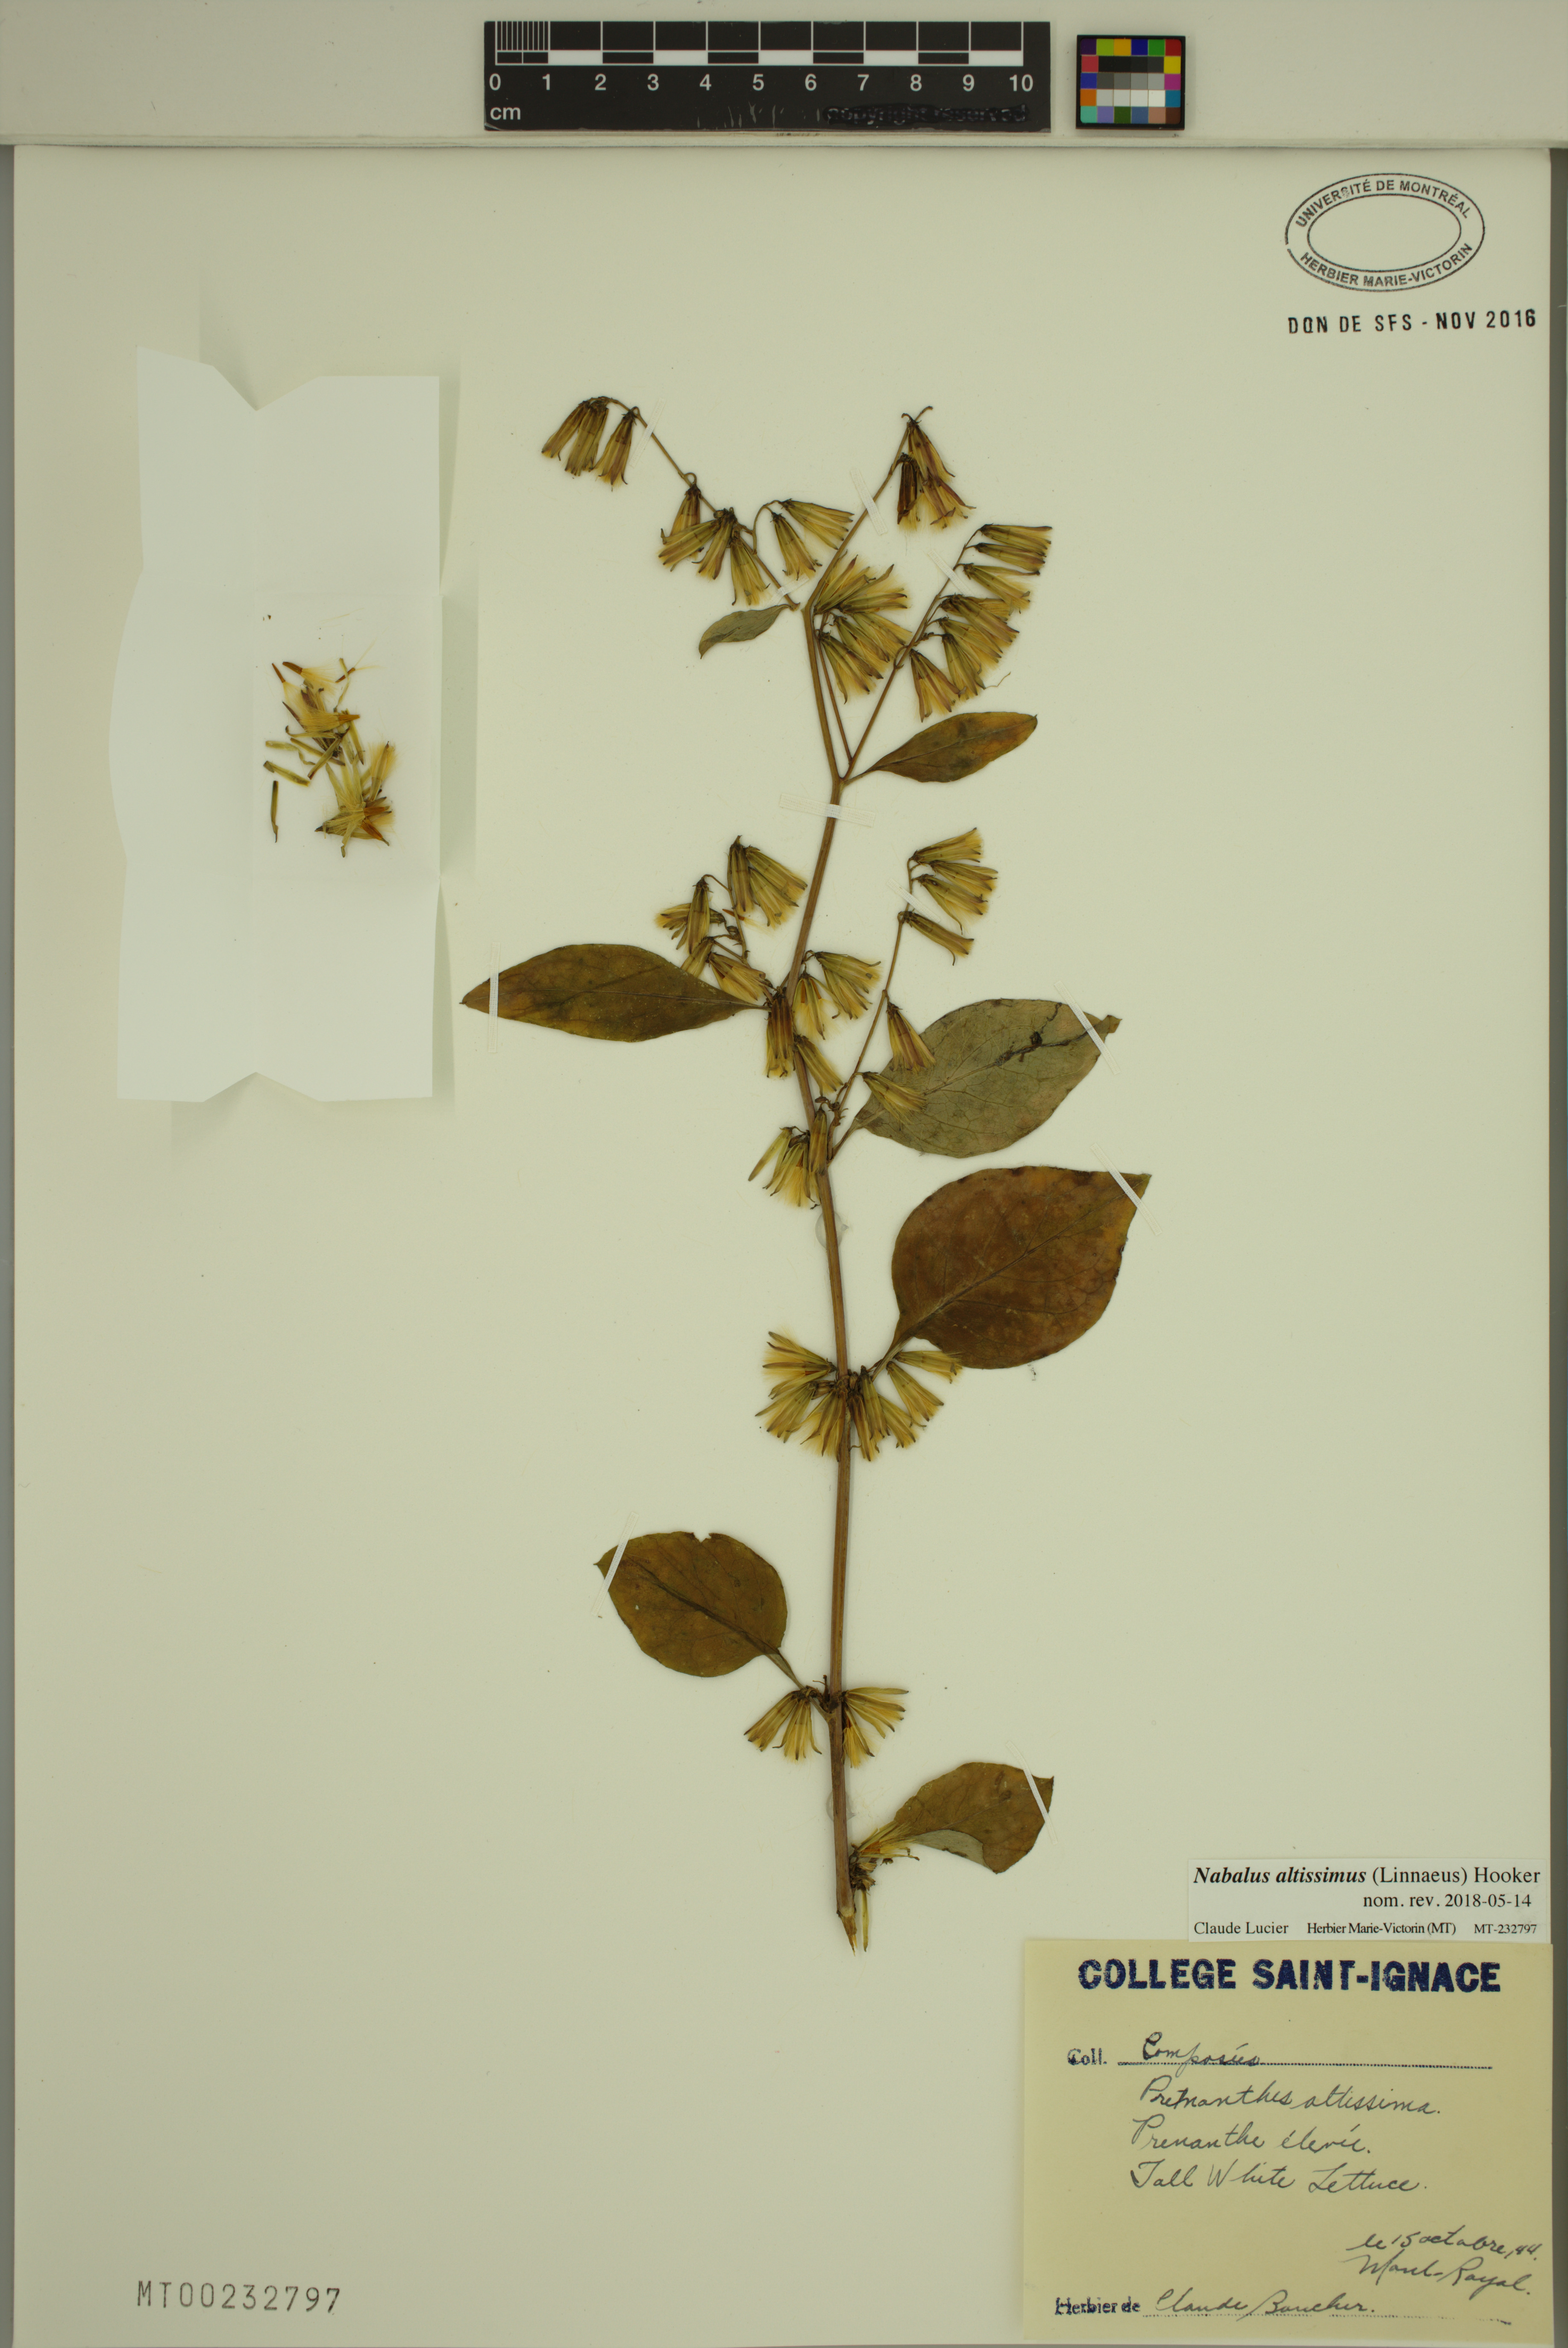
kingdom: Plantae
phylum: Tracheophyta
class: Magnoliopsida
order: Asterales
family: Asteraceae
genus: Nabalus
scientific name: Nabalus altissima
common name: Tall rattlesnakeroot
